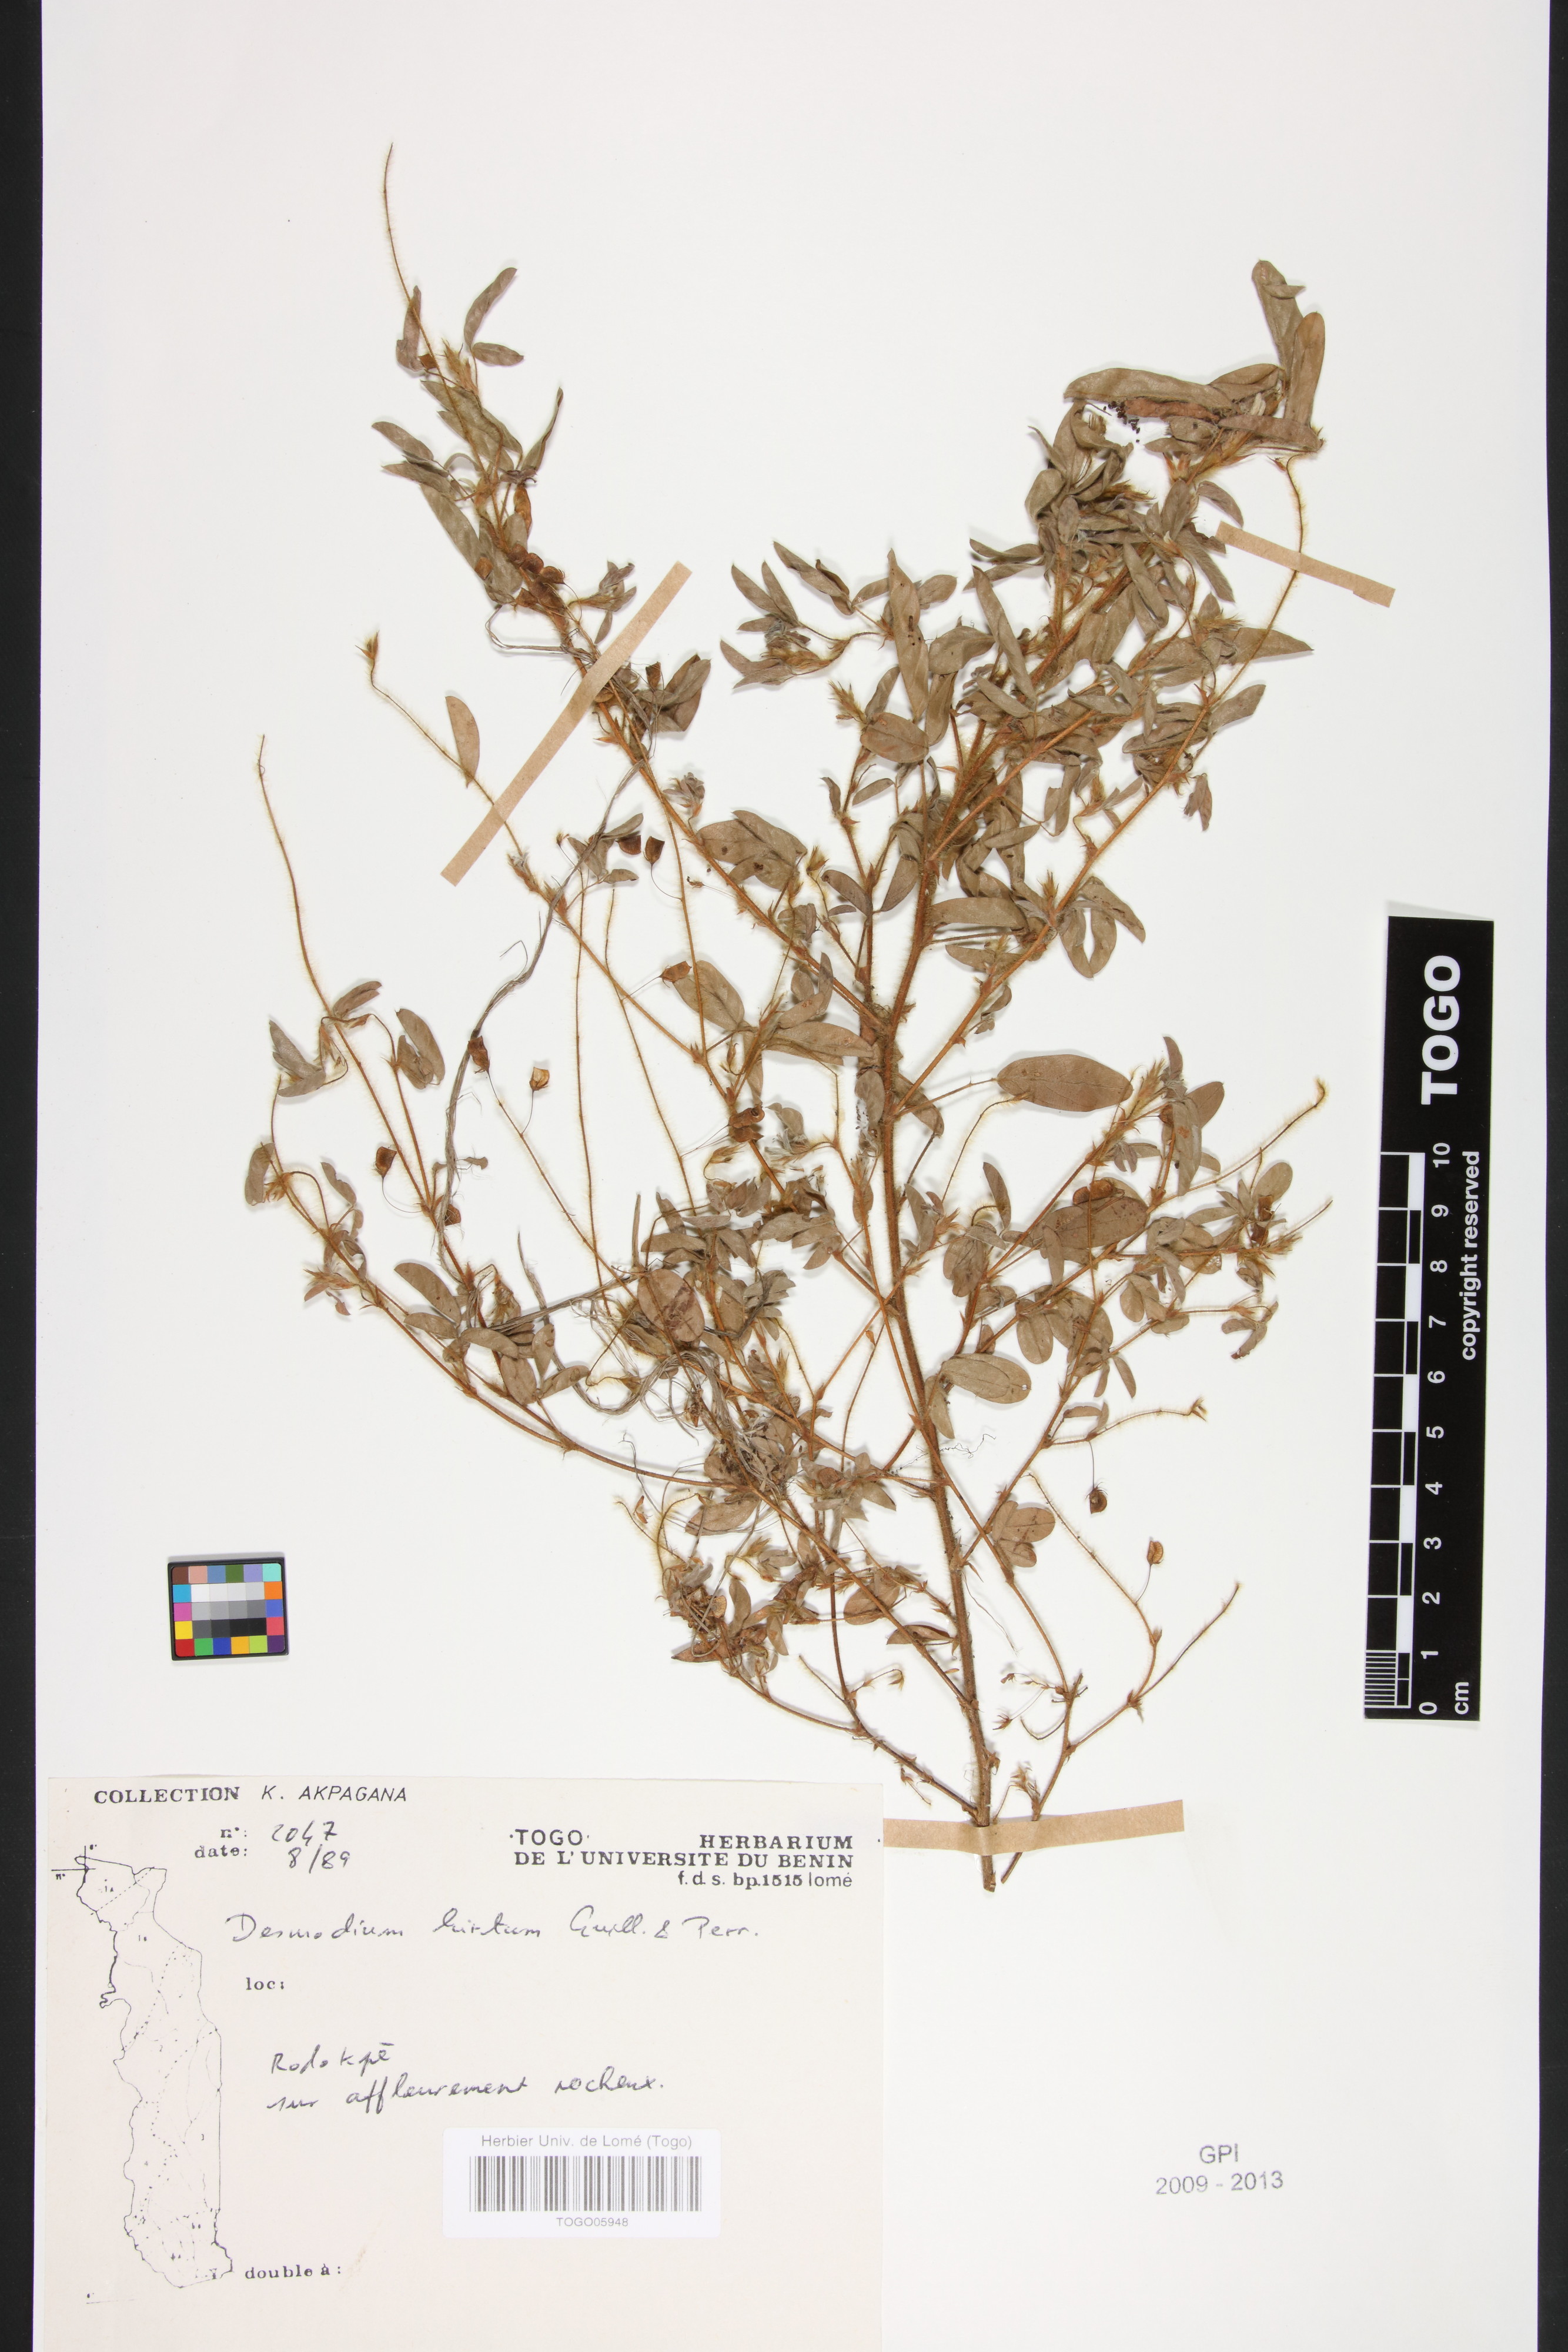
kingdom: Plantae
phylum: Tracheophyta
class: Magnoliopsida
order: Fabales
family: Fabaceae
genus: Grona
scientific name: Grona hirta
